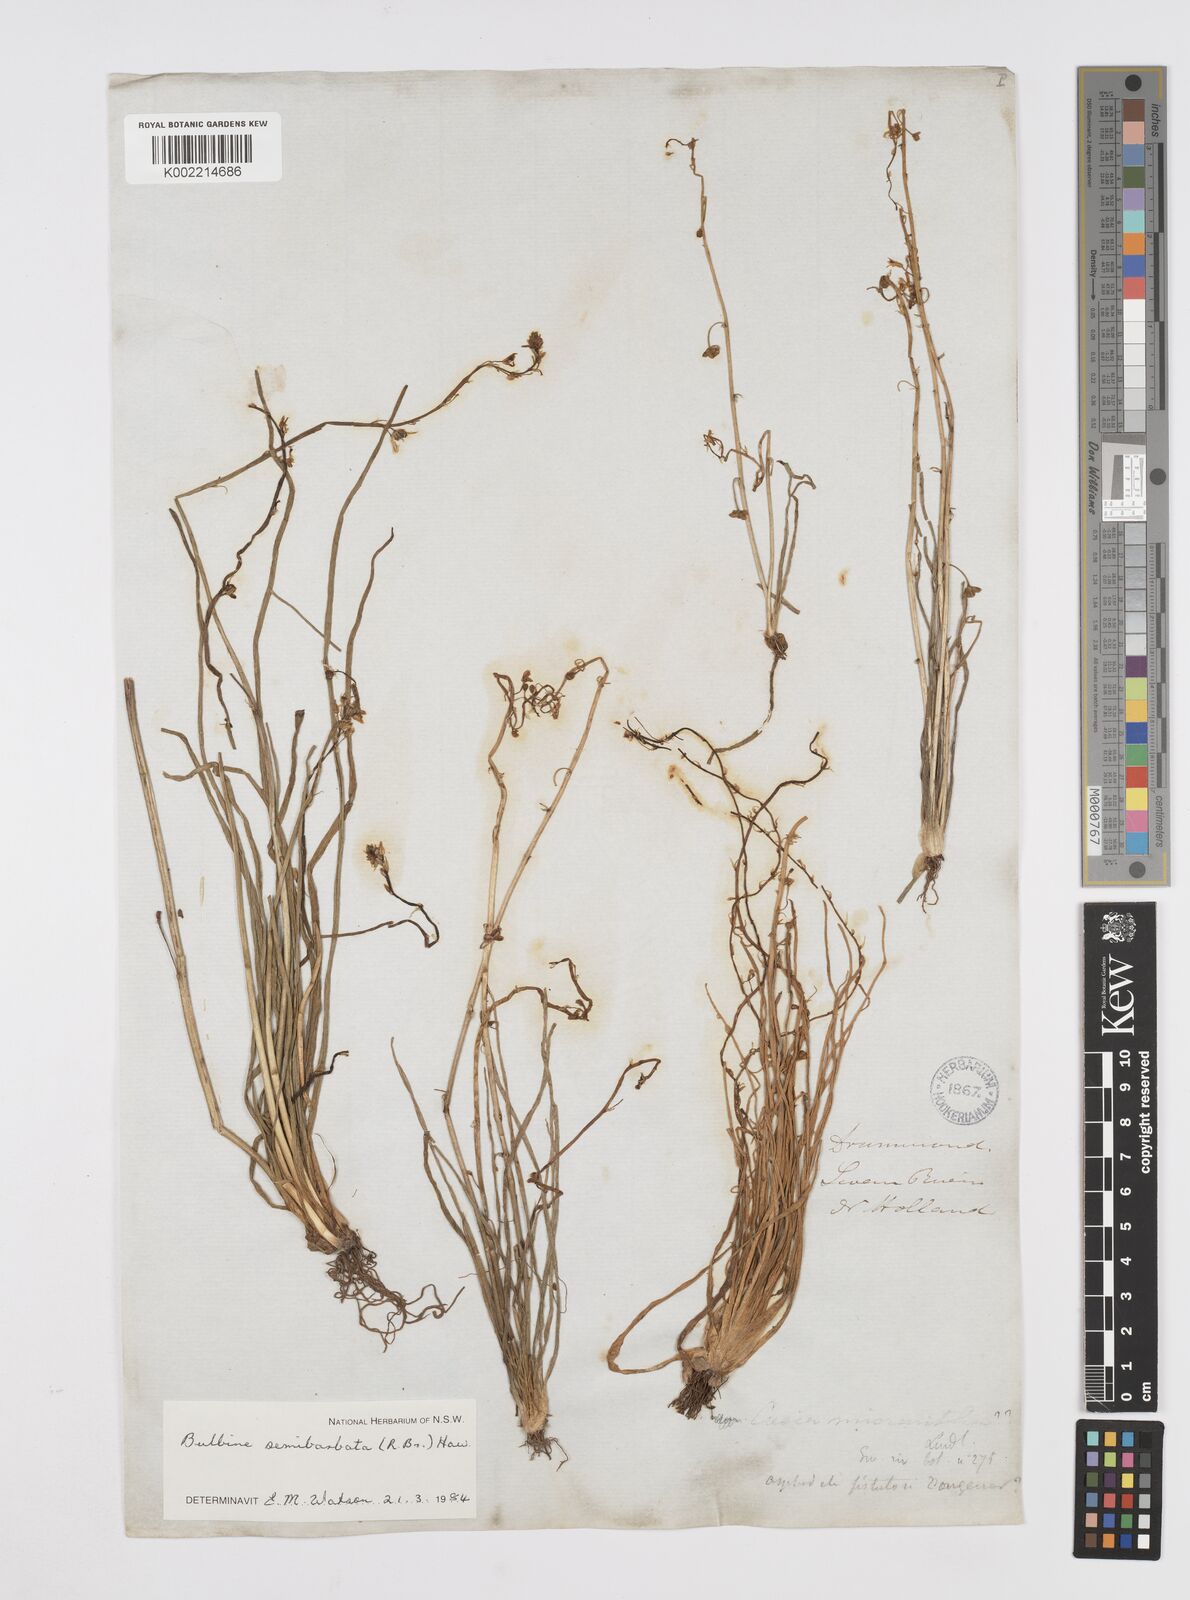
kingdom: Plantae
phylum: Tracheophyta
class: Liliopsida
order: Asparagales
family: Asphodelaceae
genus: Bulbine
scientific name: Bulbine semibarbata
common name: Leek lily
